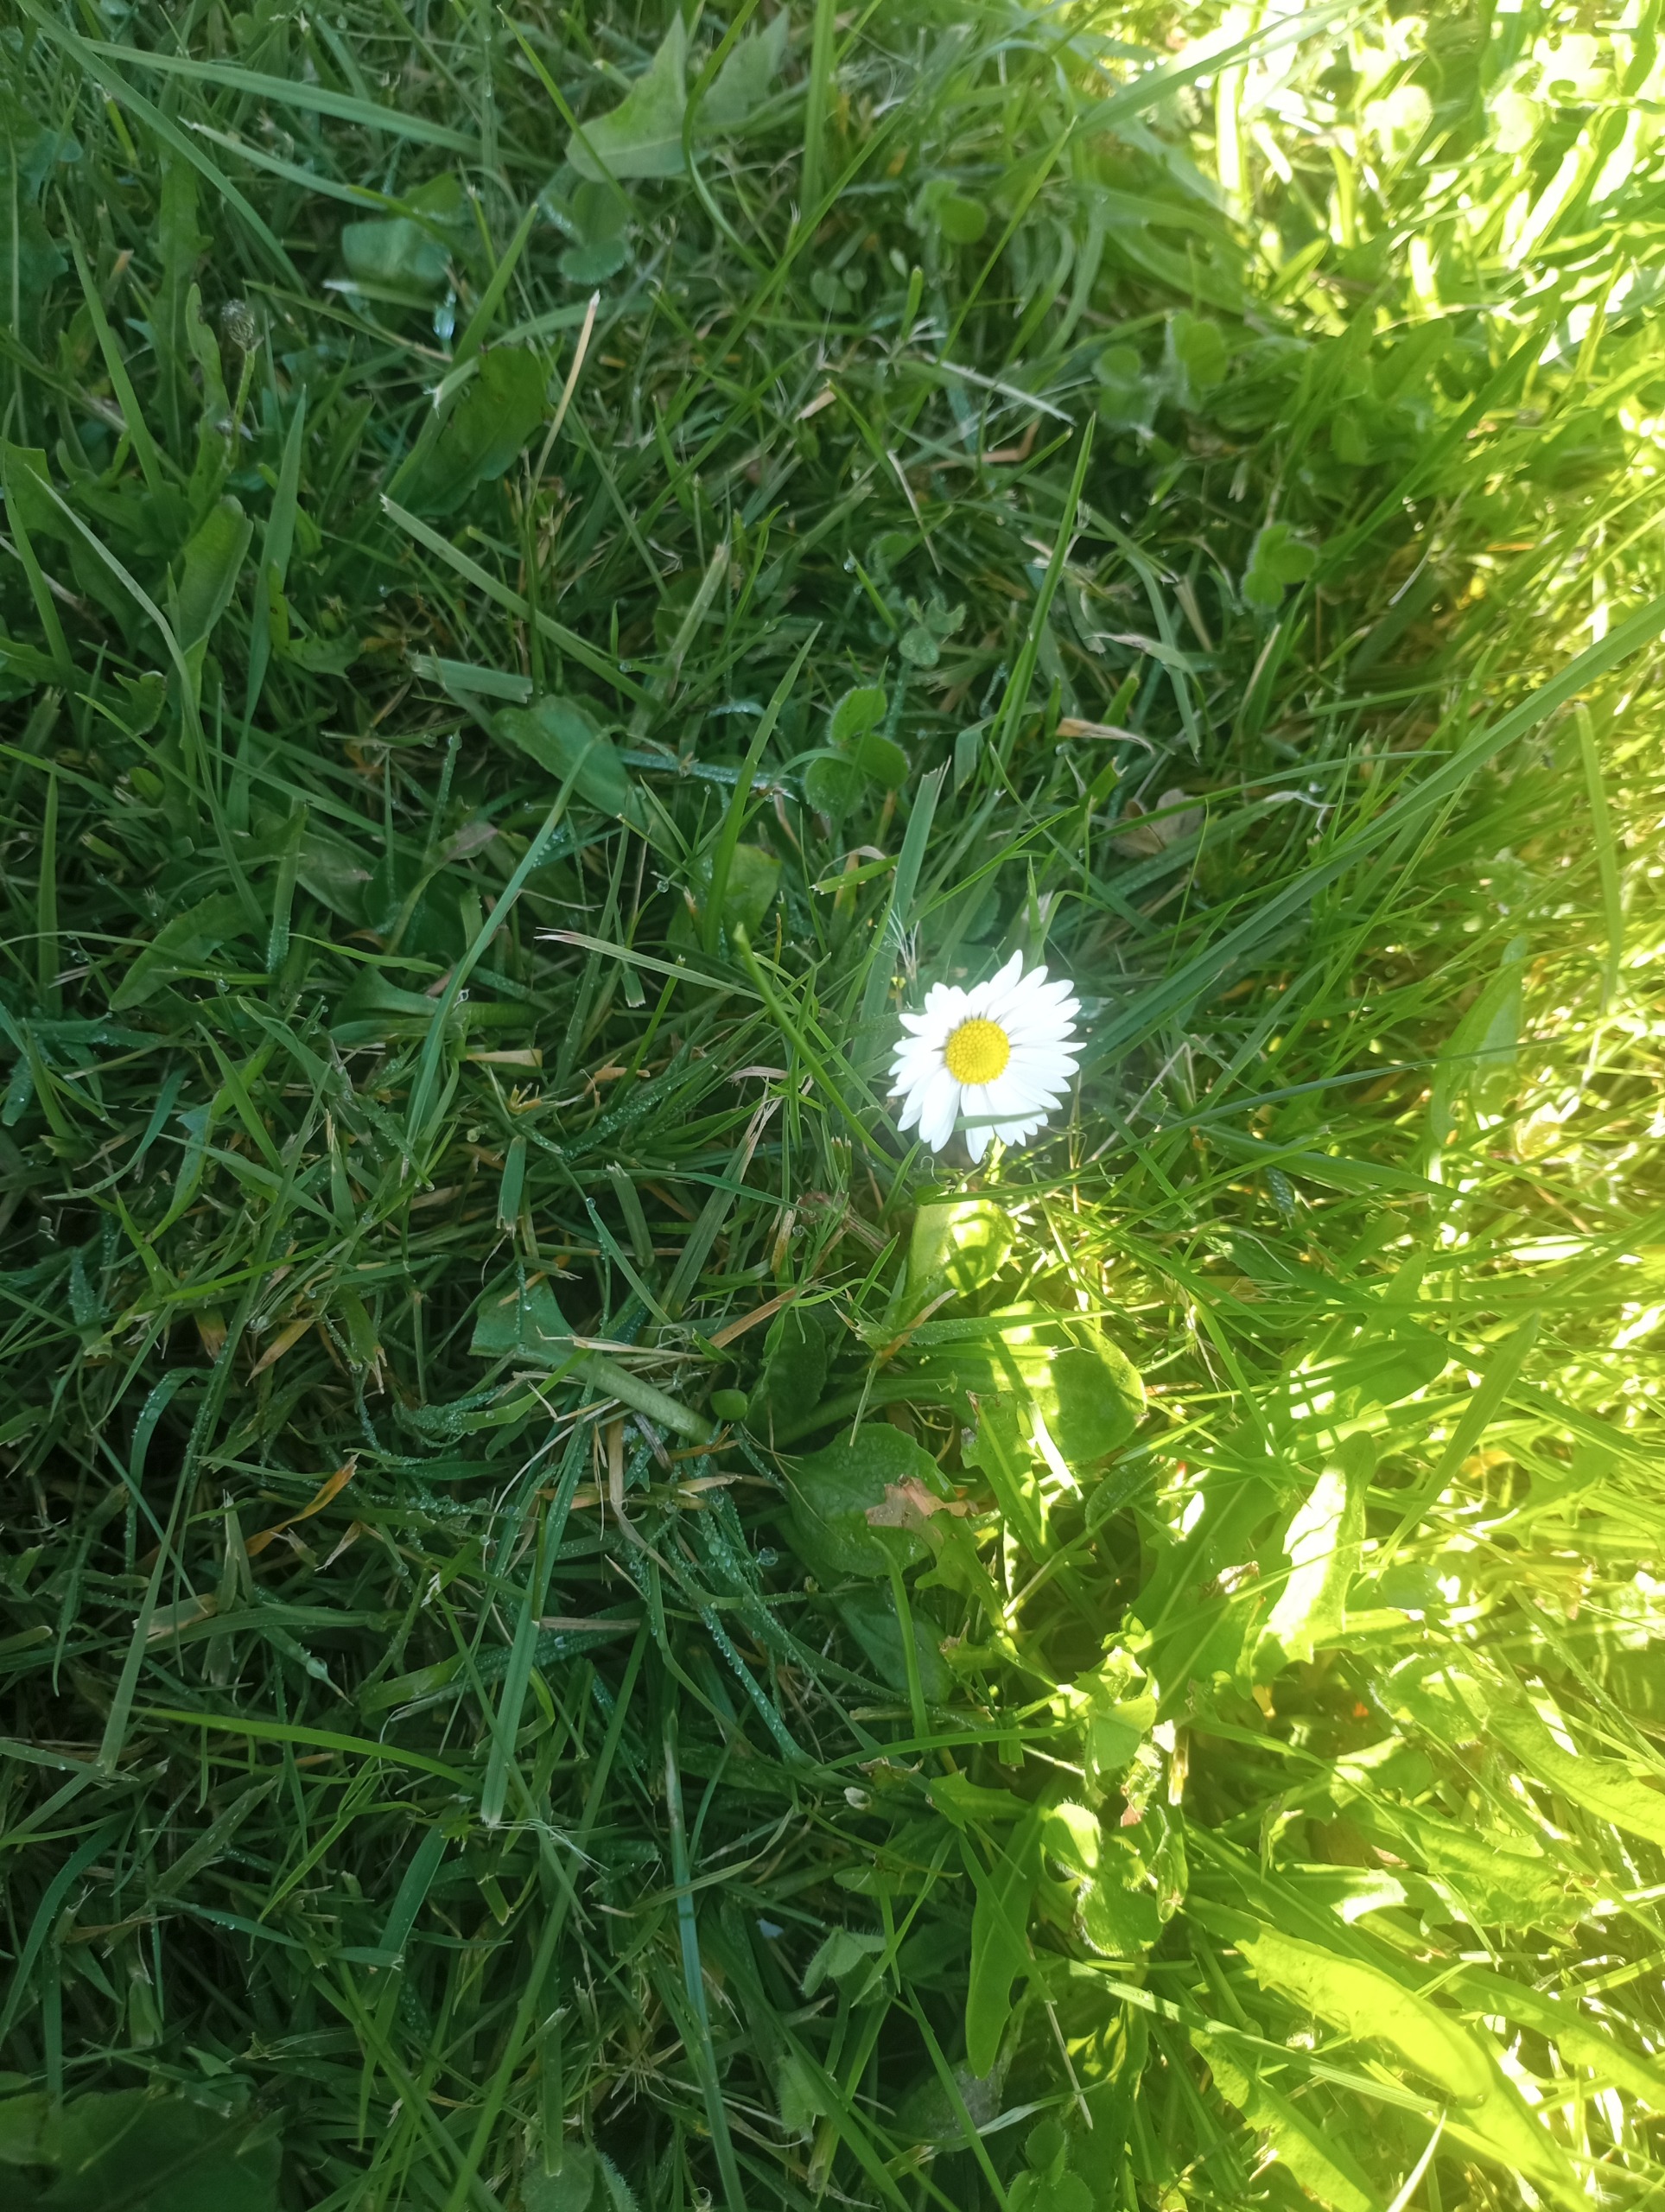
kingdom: Plantae
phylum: Tracheophyta
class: Magnoliopsida
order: Asterales
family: Asteraceae
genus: Bellis
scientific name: Bellis perennis
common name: Tusindfryd
